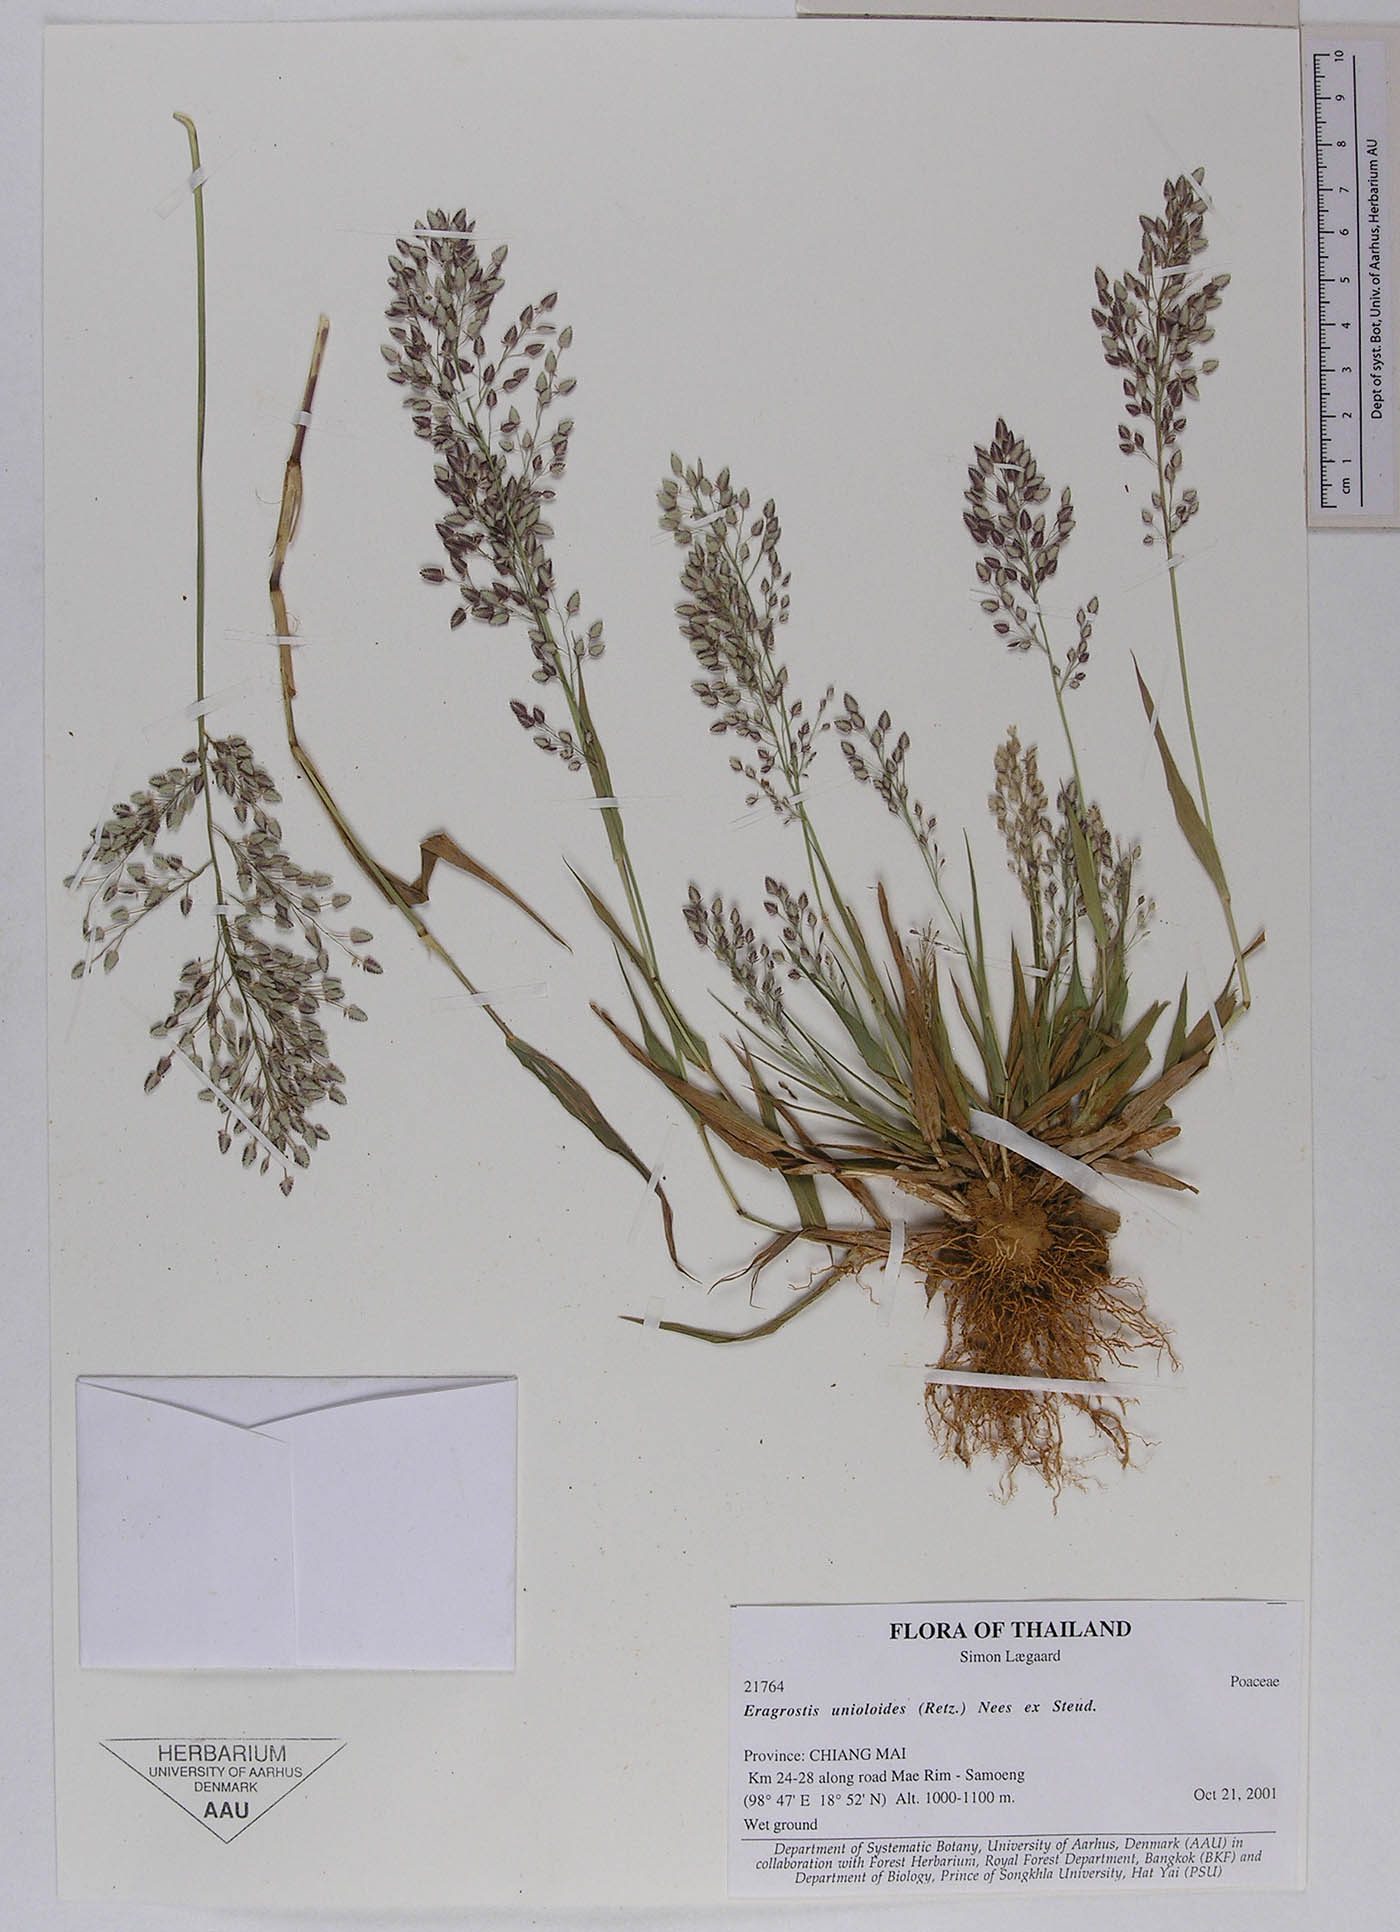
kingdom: Plantae
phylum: Tracheophyta
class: Liliopsida
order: Poales
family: Poaceae
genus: Eragrostis
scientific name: Eragrostis unioloides
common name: Chinese lovegrass
